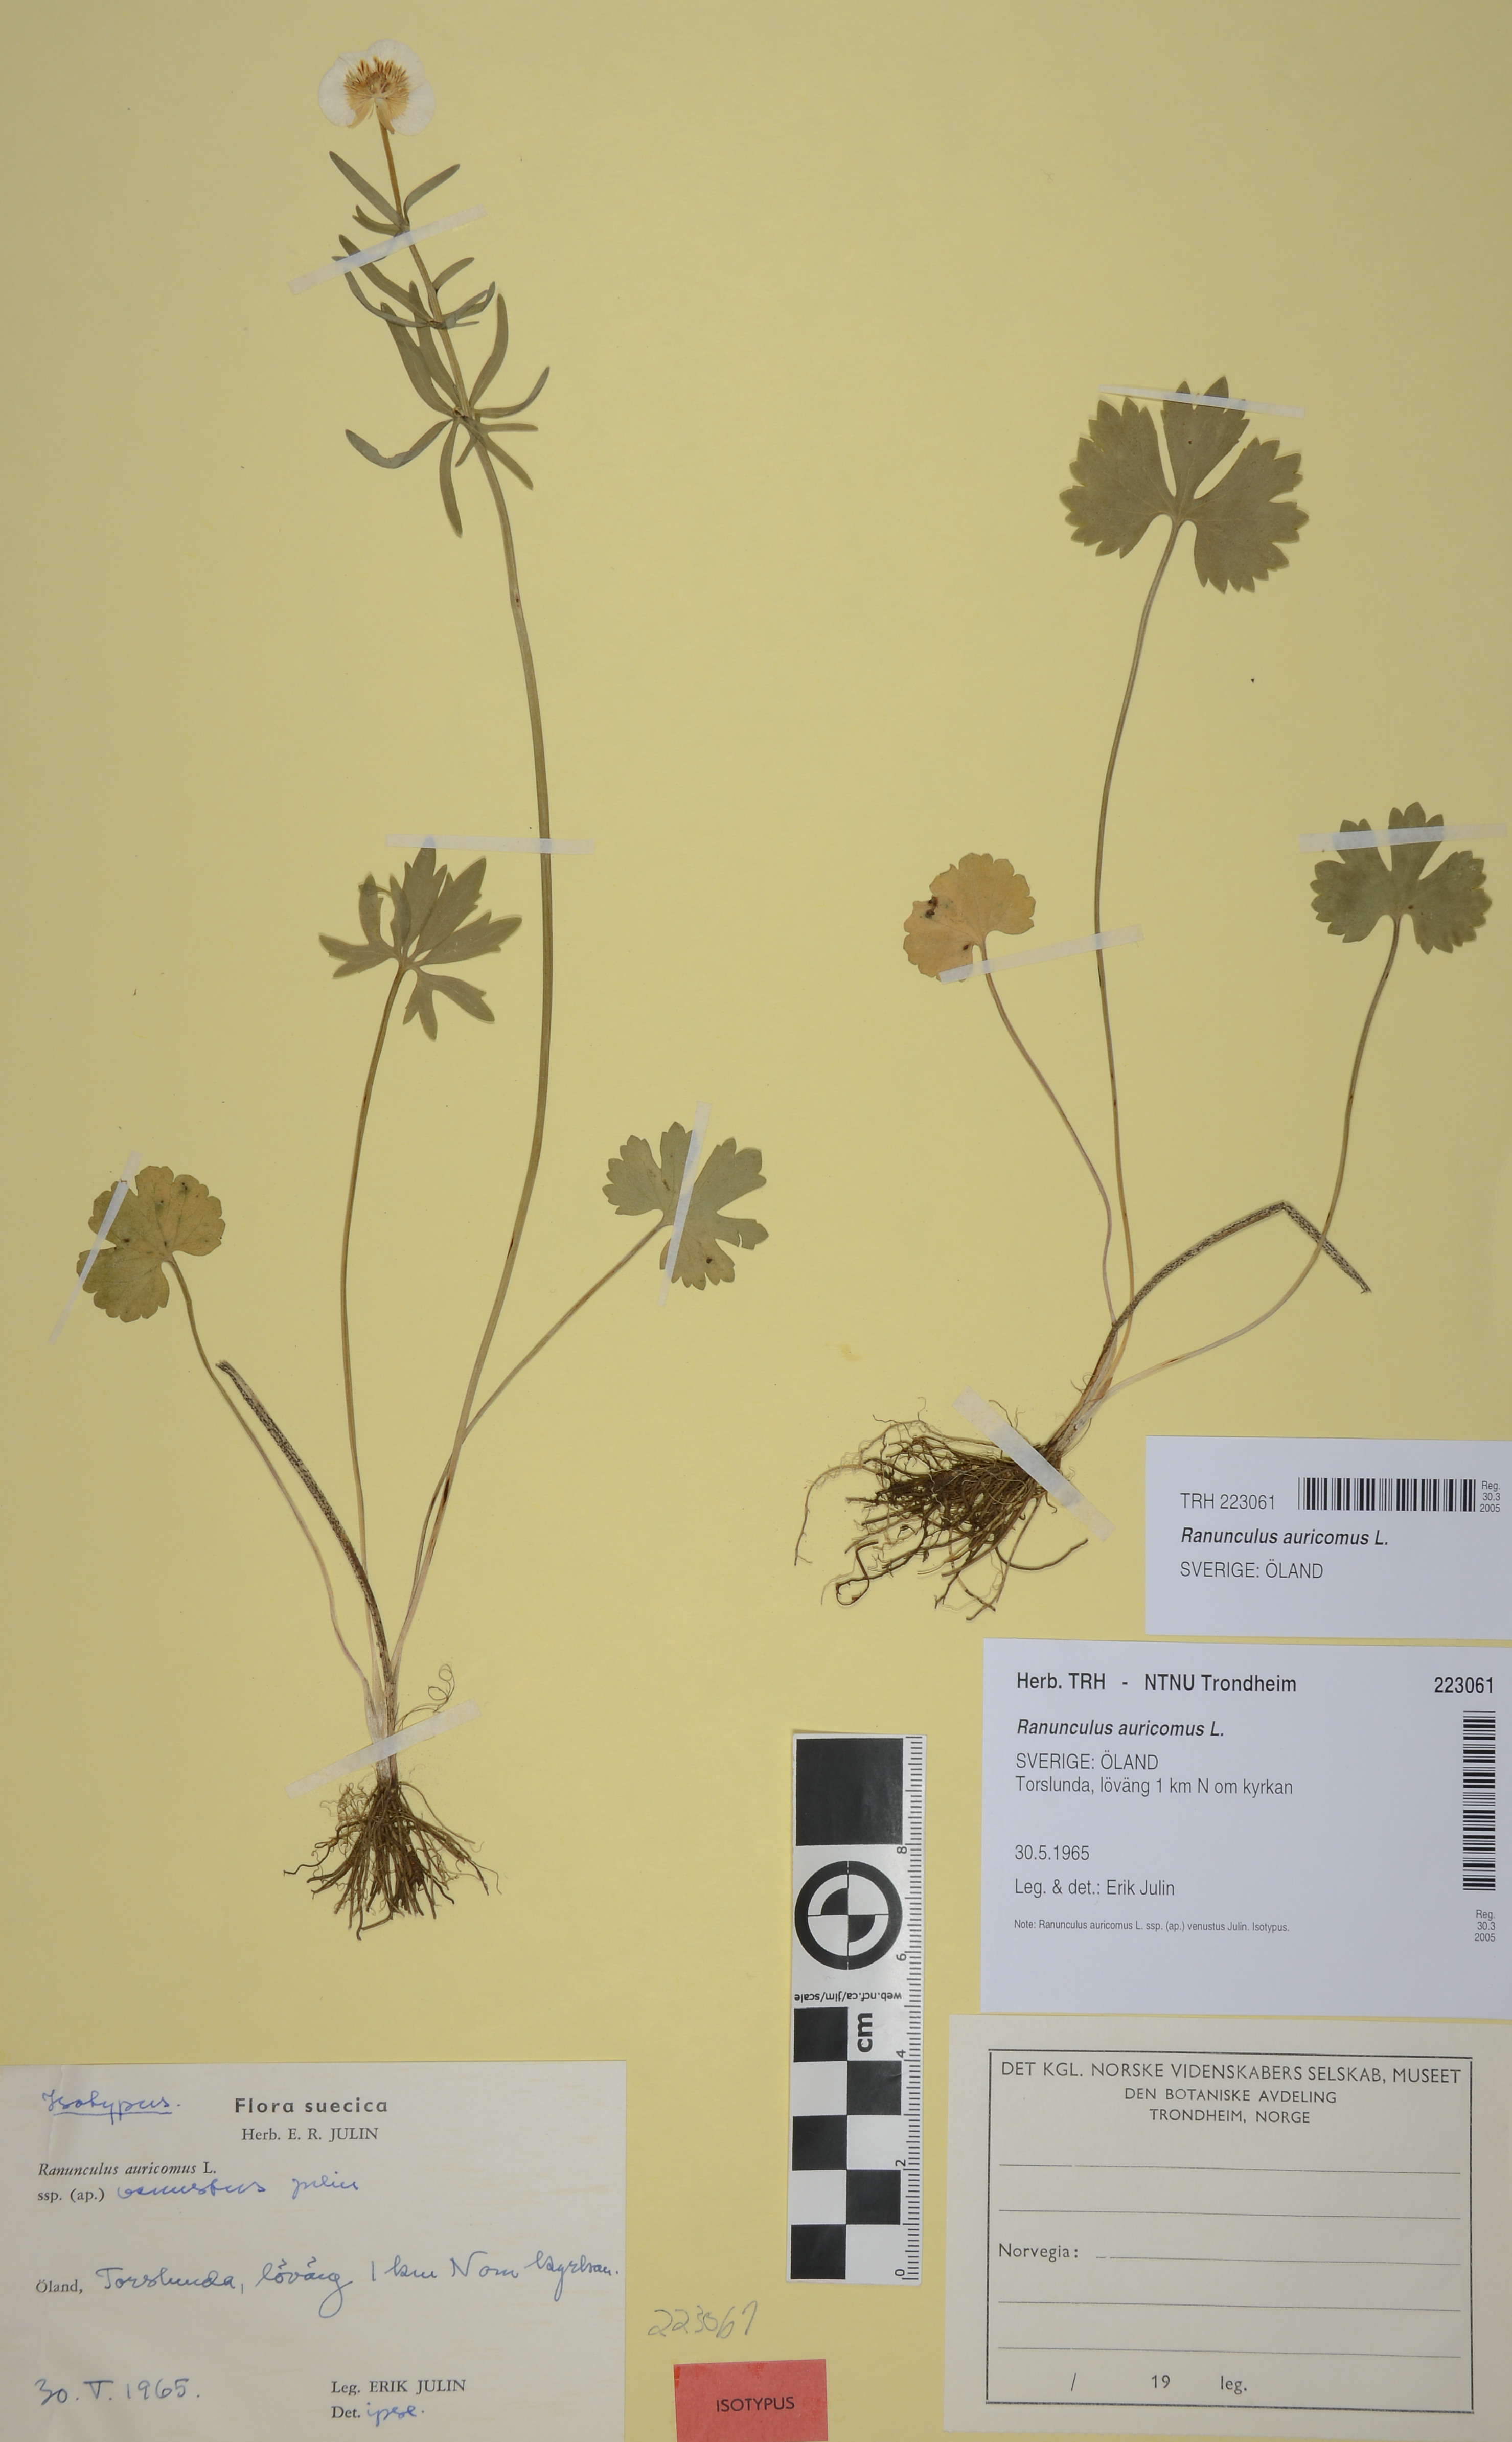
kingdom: Plantae
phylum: Tracheophyta
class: Magnoliopsida
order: Ranunculales
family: Ranunculaceae
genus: Ranunculus
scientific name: Ranunculus auricomus
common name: Goldilocks buttercup
